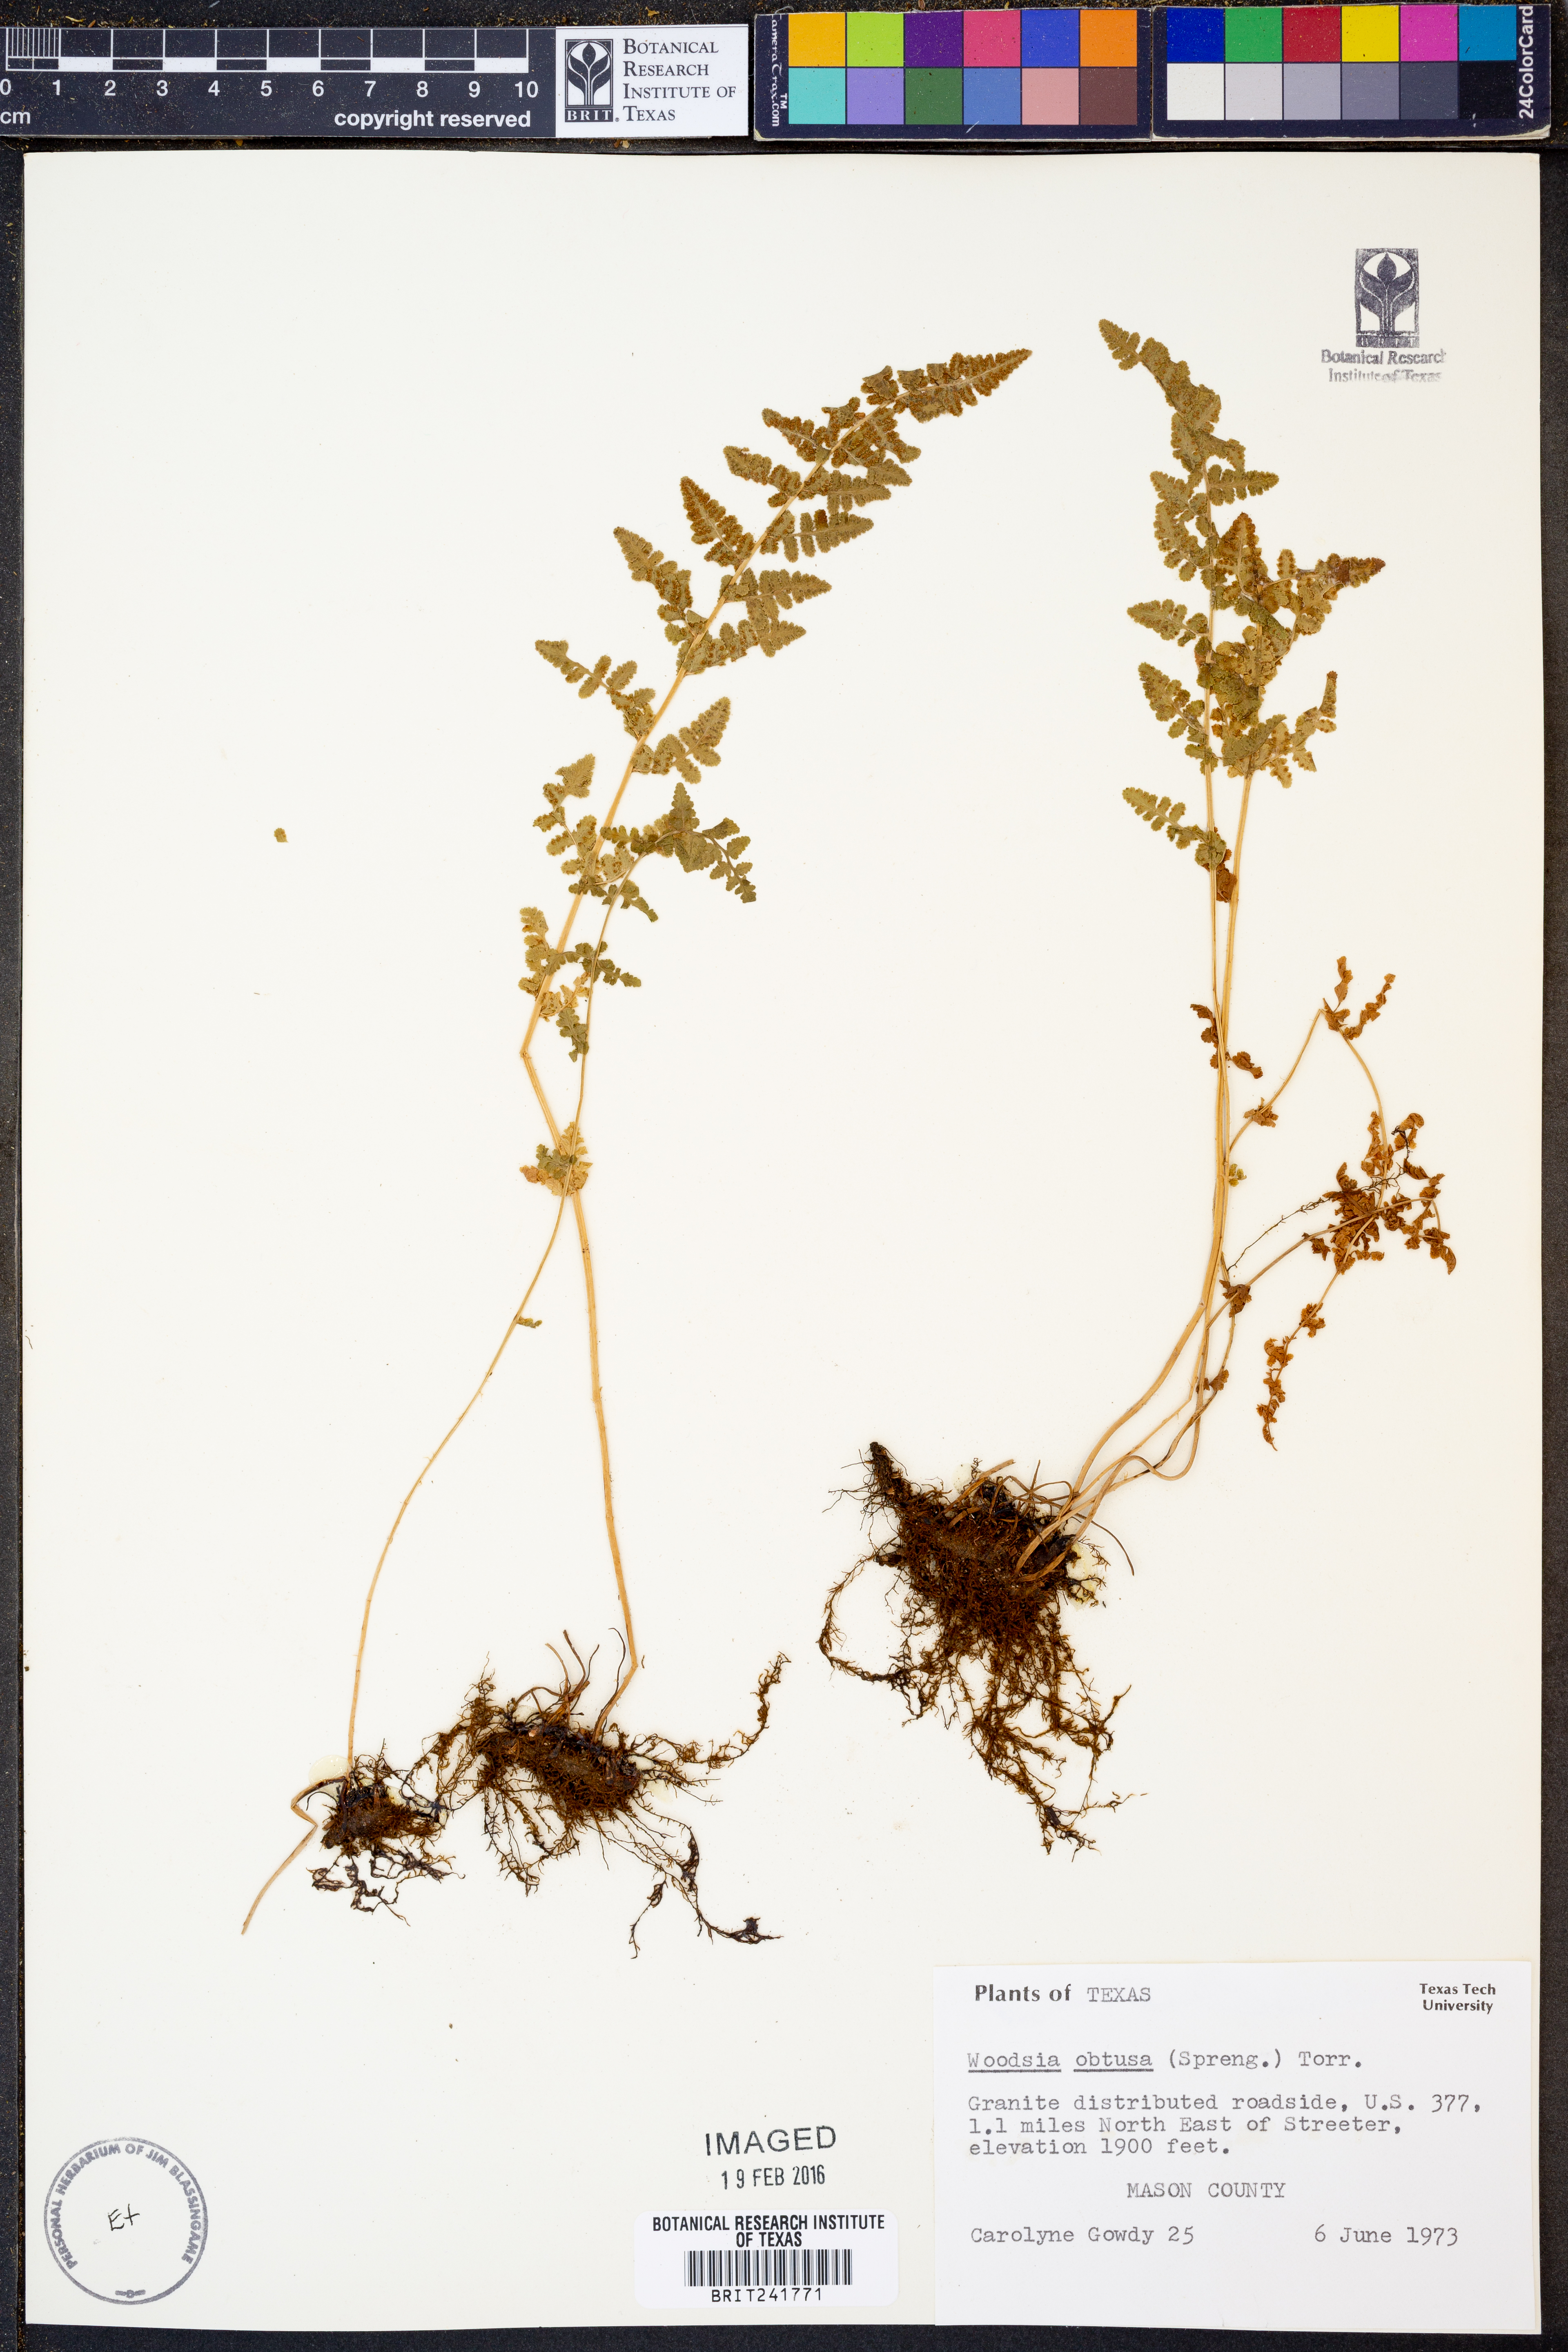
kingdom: Plantae
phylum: Tracheophyta
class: Polypodiopsida
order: Polypodiales
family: Woodsiaceae
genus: Physematium
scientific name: Physematium obtusum
